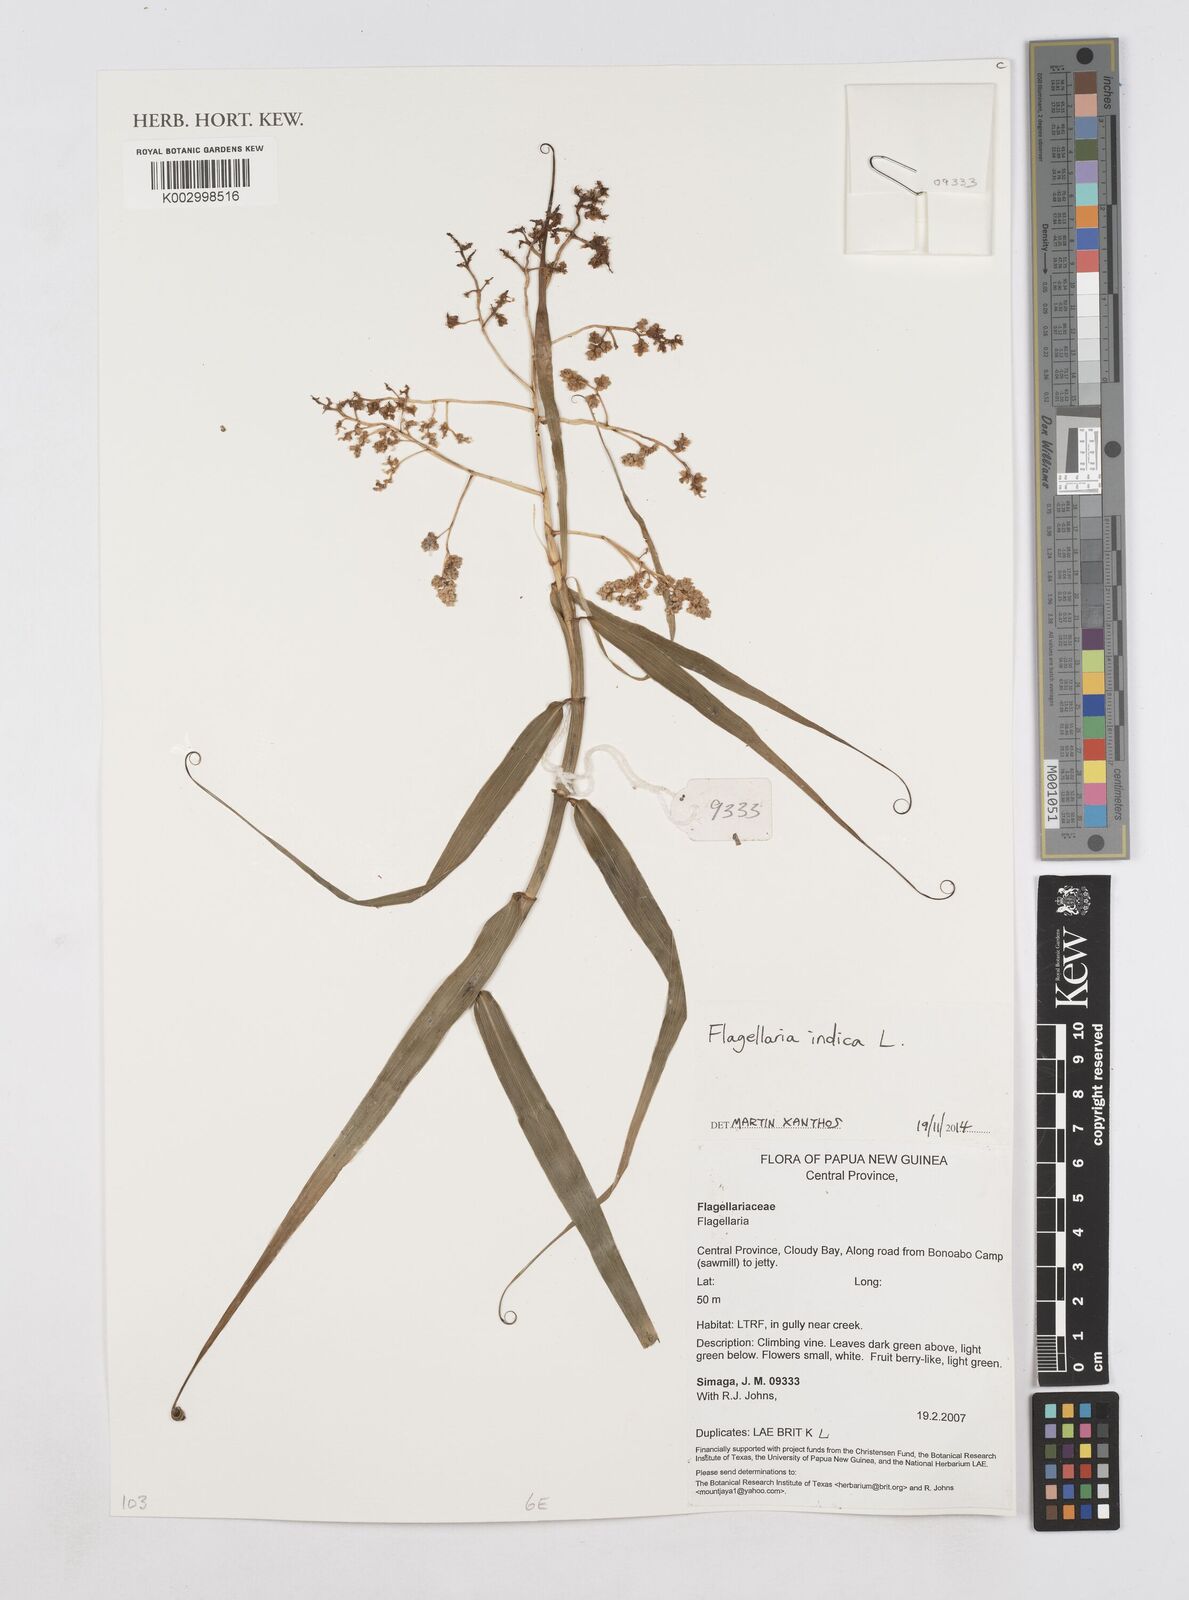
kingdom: Plantae
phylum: Tracheophyta
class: Liliopsida
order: Poales
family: Flagellariaceae
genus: Flagellaria
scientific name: Flagellaria indica
